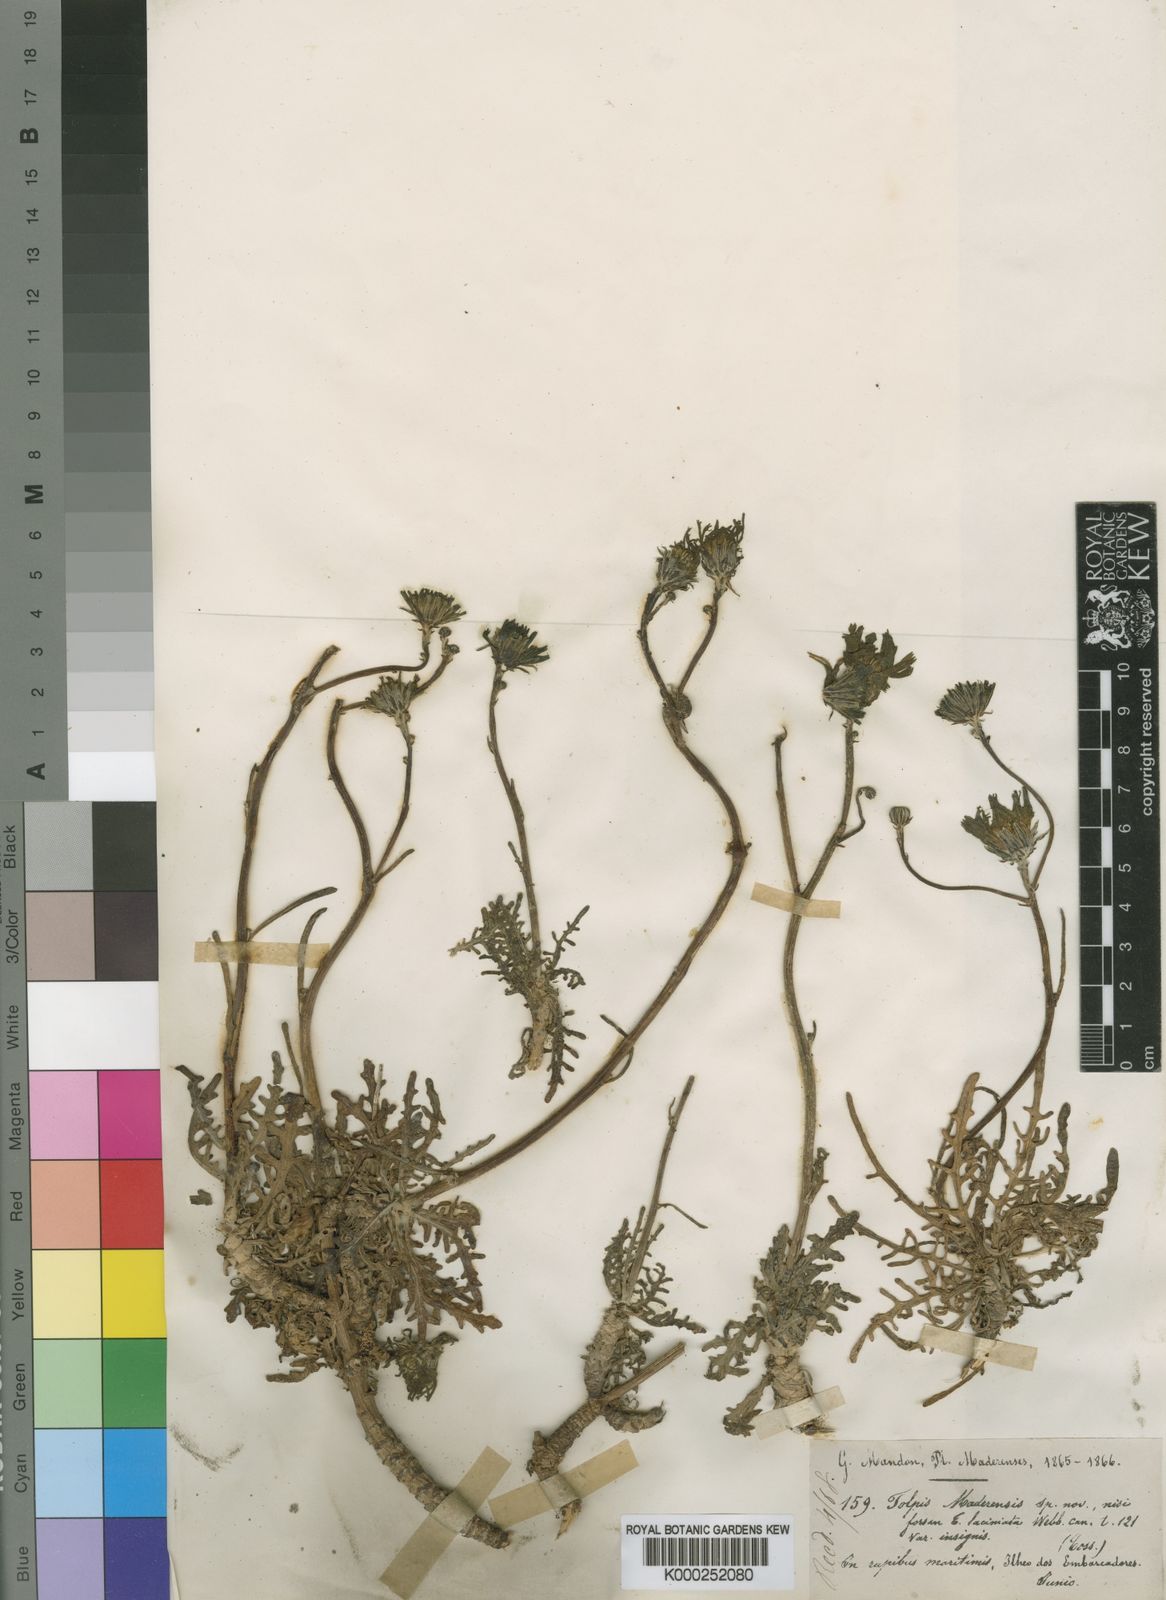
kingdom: Plantae
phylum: Tracheophyta
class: Magnoliopsida
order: Asterales
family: Asteraceae
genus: Tolpis
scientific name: Tolpis capensis
